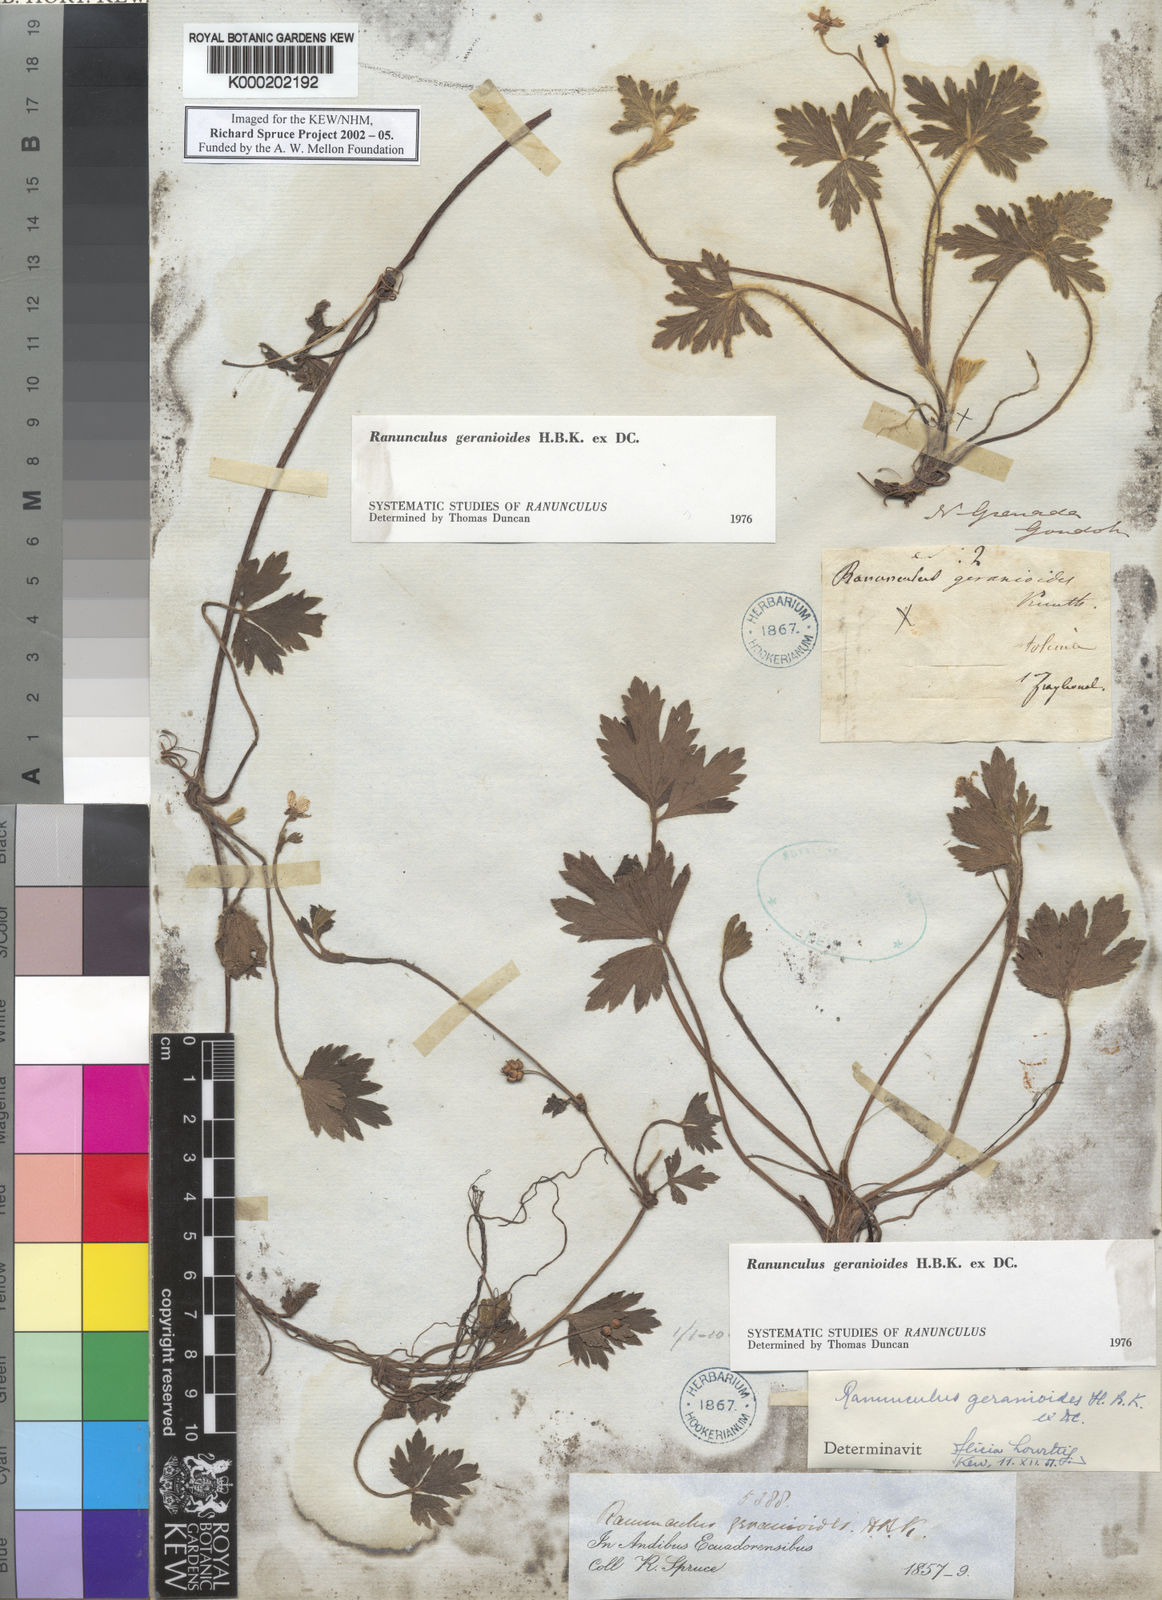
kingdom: Plantae
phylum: Tracheophyta
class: Magnoliopsida
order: Ranunculales
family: Ranunculaceae
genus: Ranunculus
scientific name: Ranunculus geranioides
